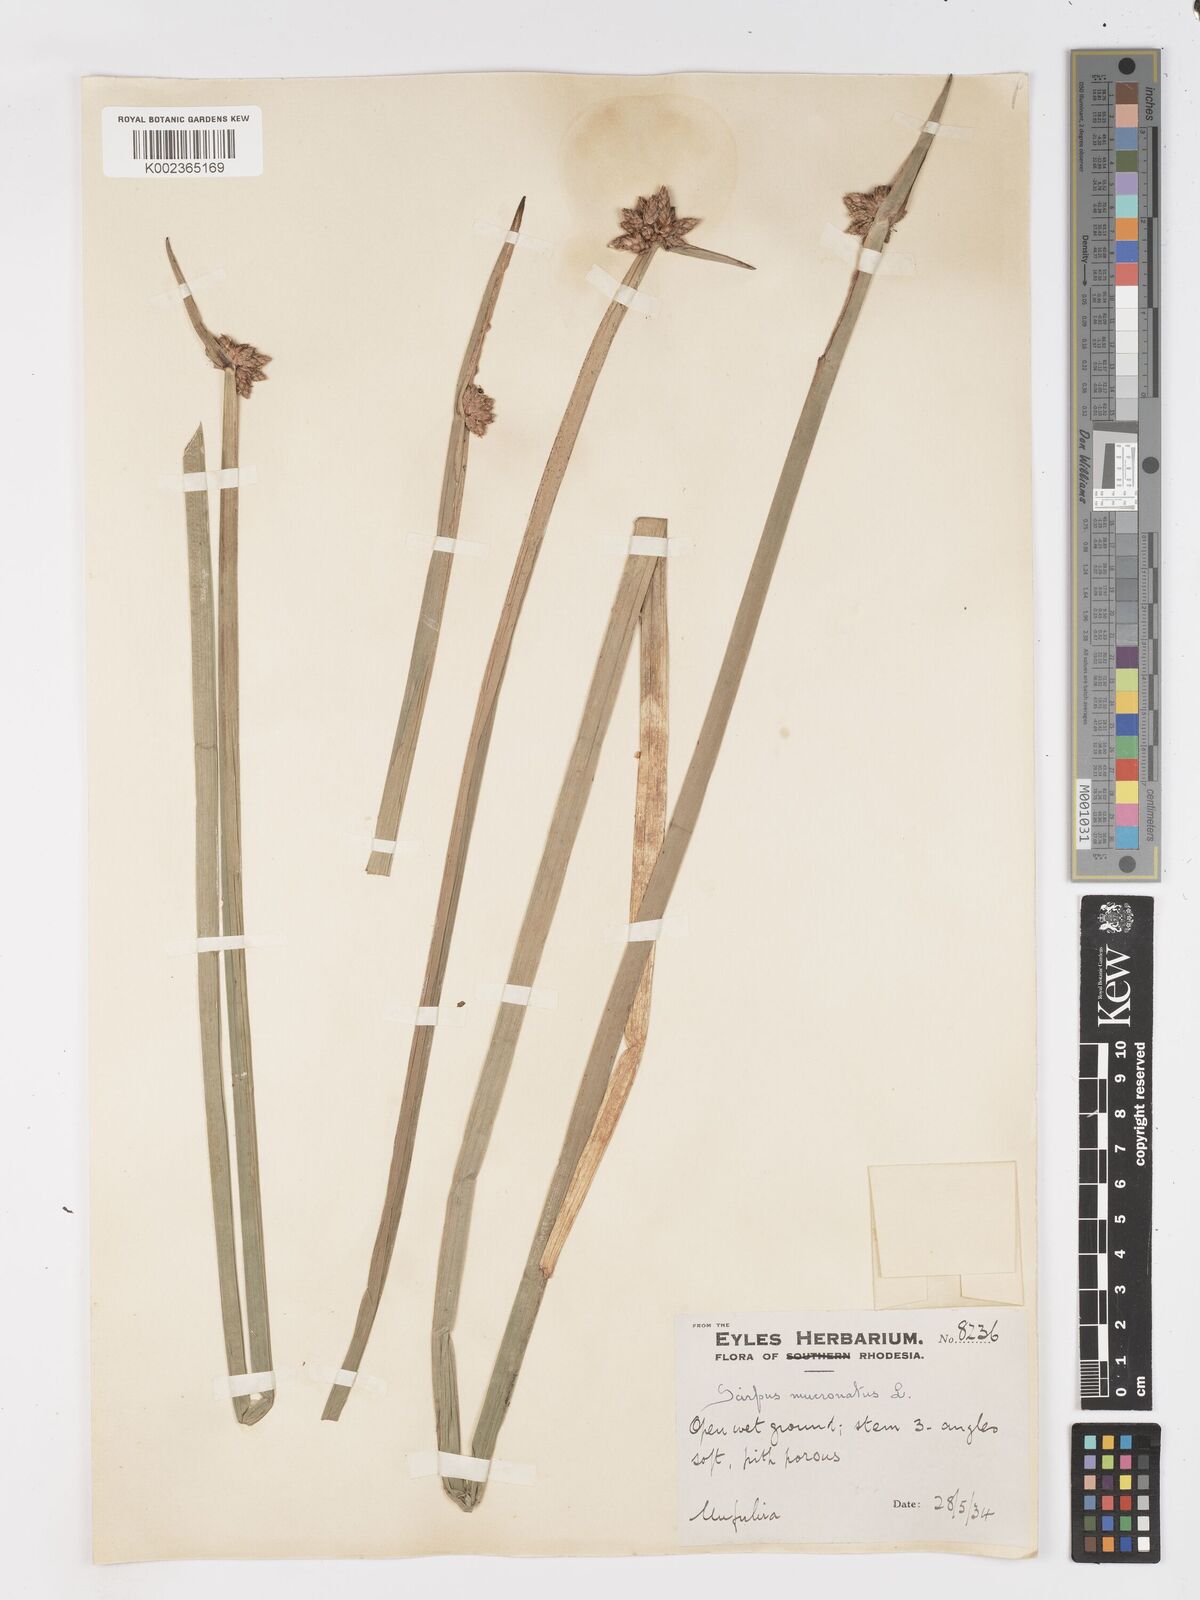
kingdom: Plantae
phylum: Tracheophyta
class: Liliopsida
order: Poales
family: Cyperaceae
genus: Schoenoplectiella
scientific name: Schoenoplectiella mucronata
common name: Bog bulrush
